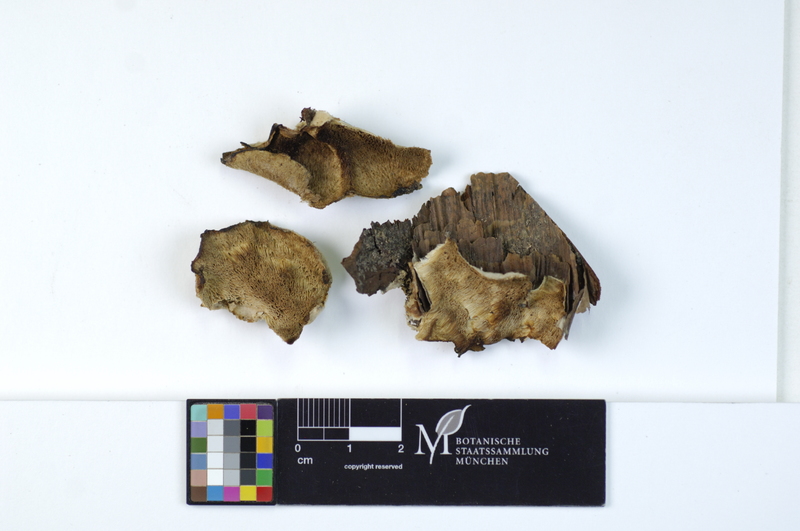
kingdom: Fungi
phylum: Basidiomycota
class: Agaricomycetes
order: Polyporales
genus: Fuscopostia
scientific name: Fuscopostia fragilis
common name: Brown-staining cheese polypore
